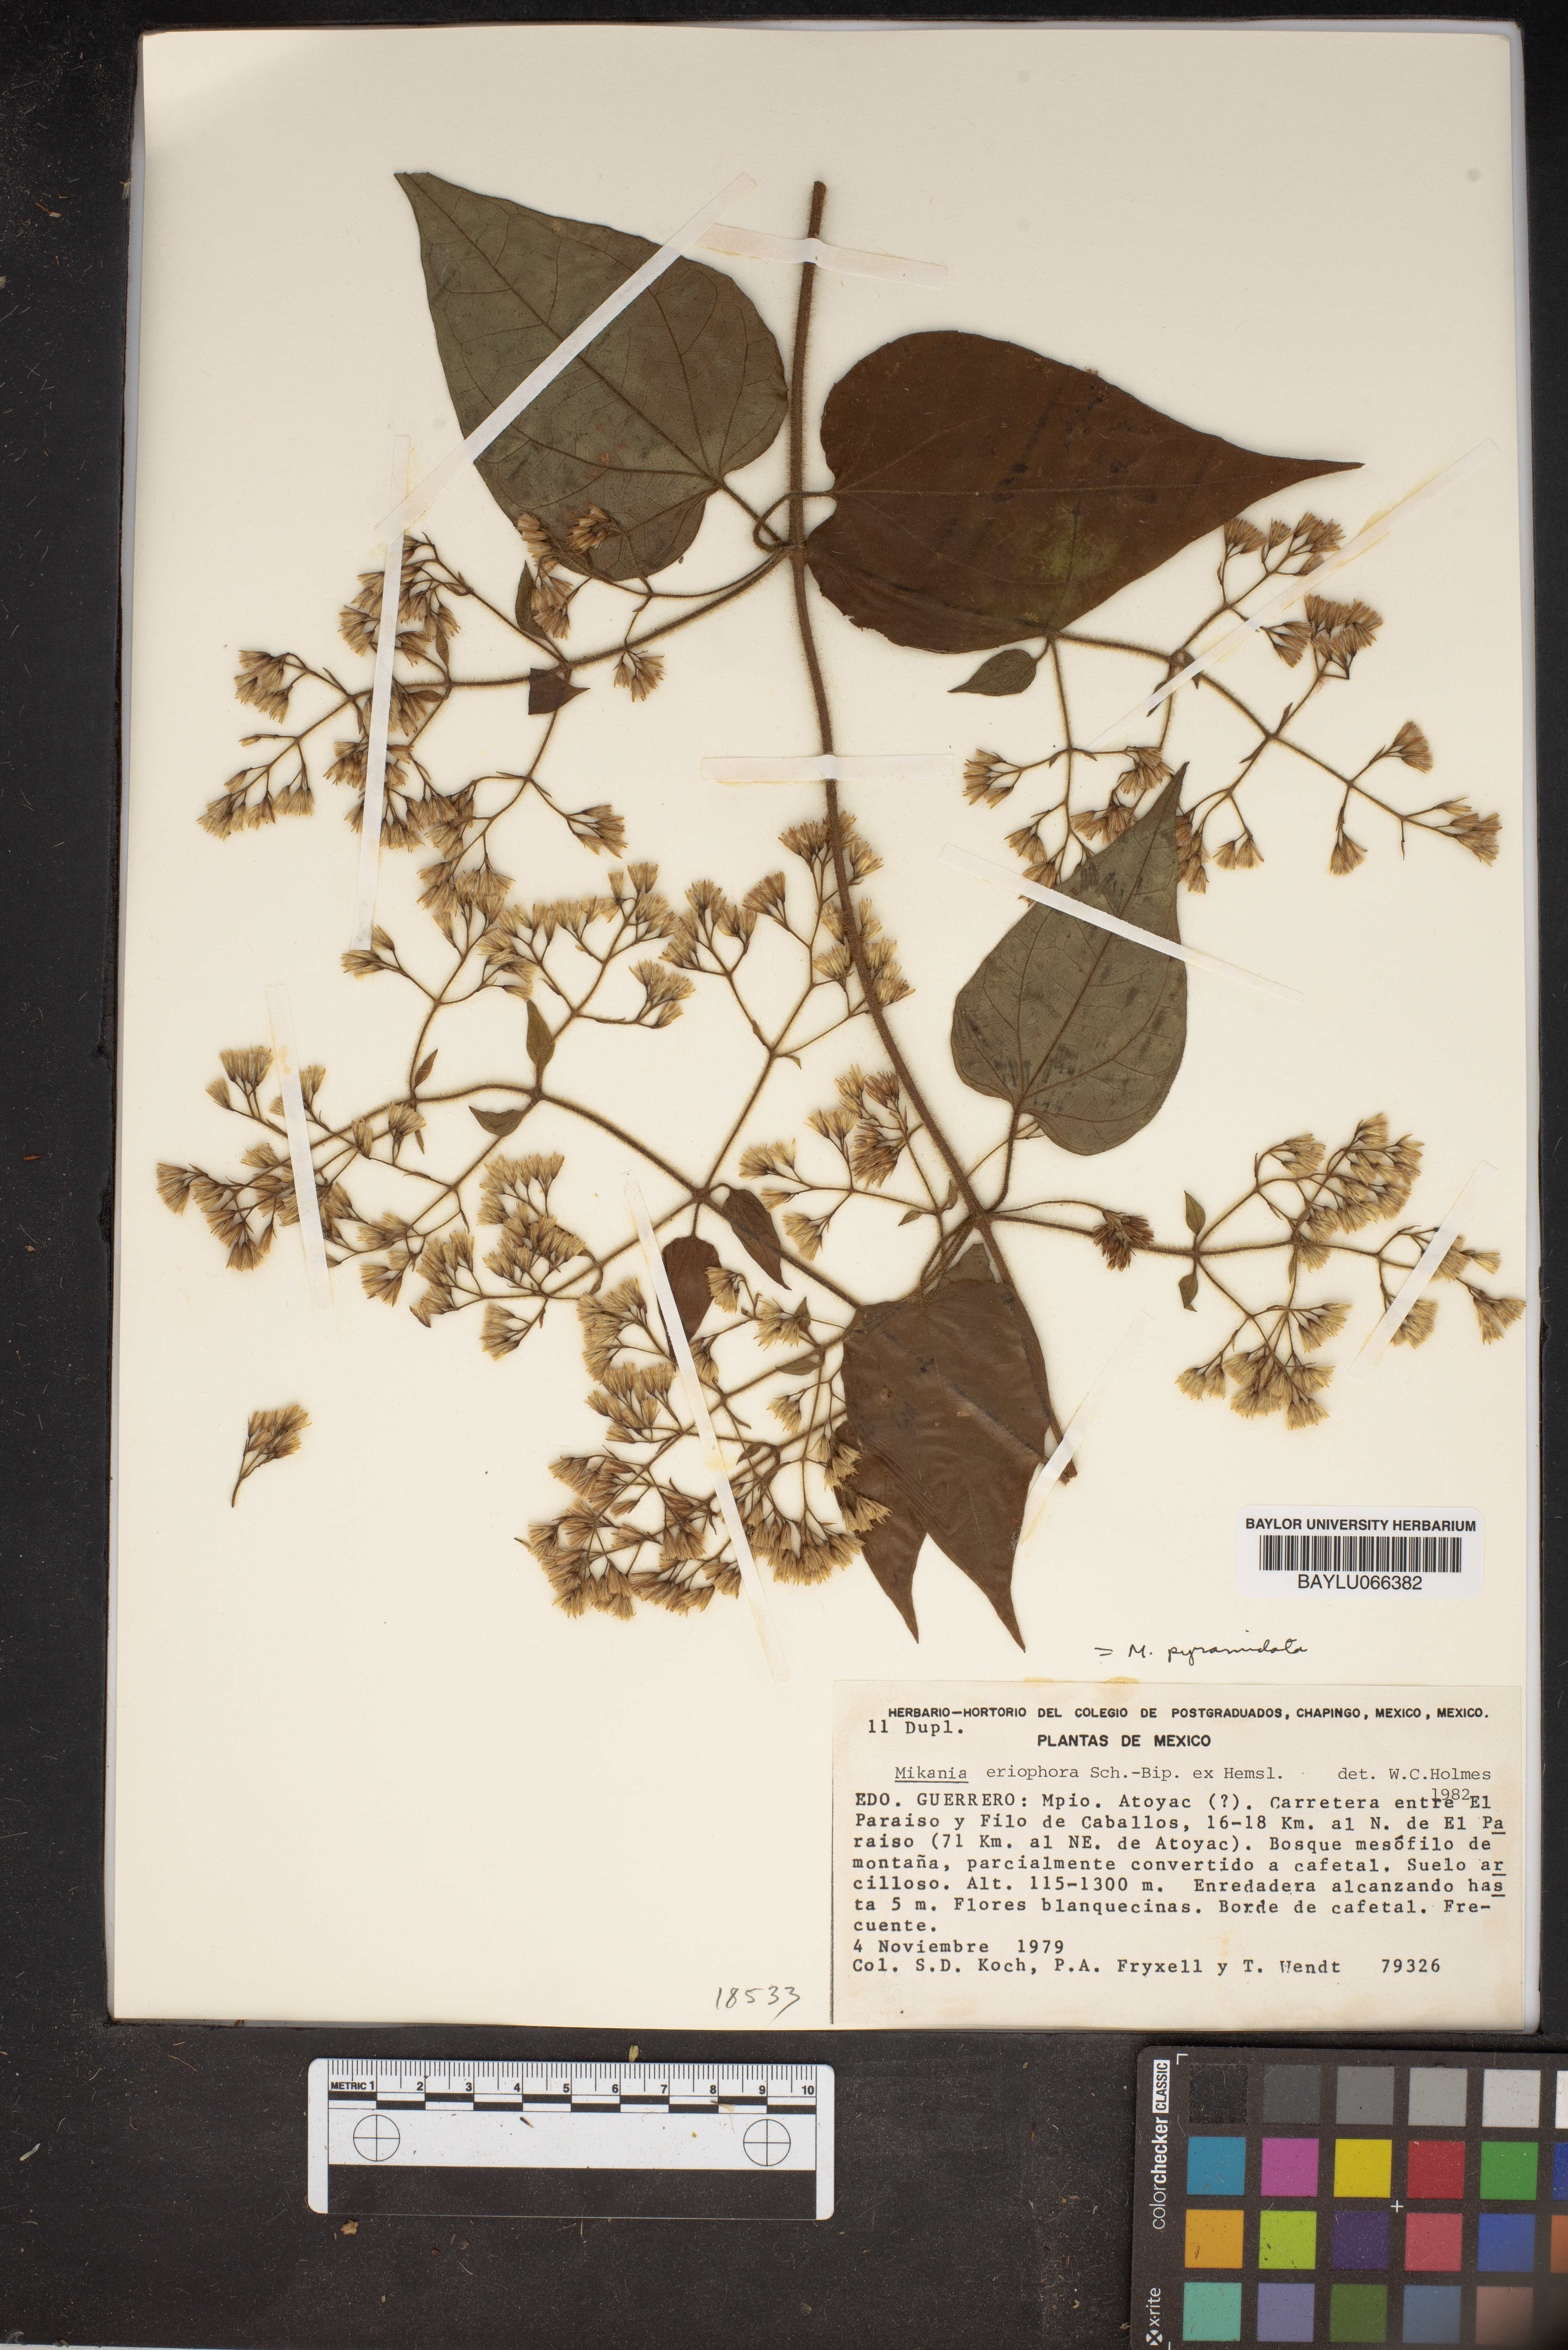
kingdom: Plantae
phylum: Tracheophyta
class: Magnoliopsida
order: Asterales
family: Asteraceae
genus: Mikania
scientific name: Mikania pyramidata
